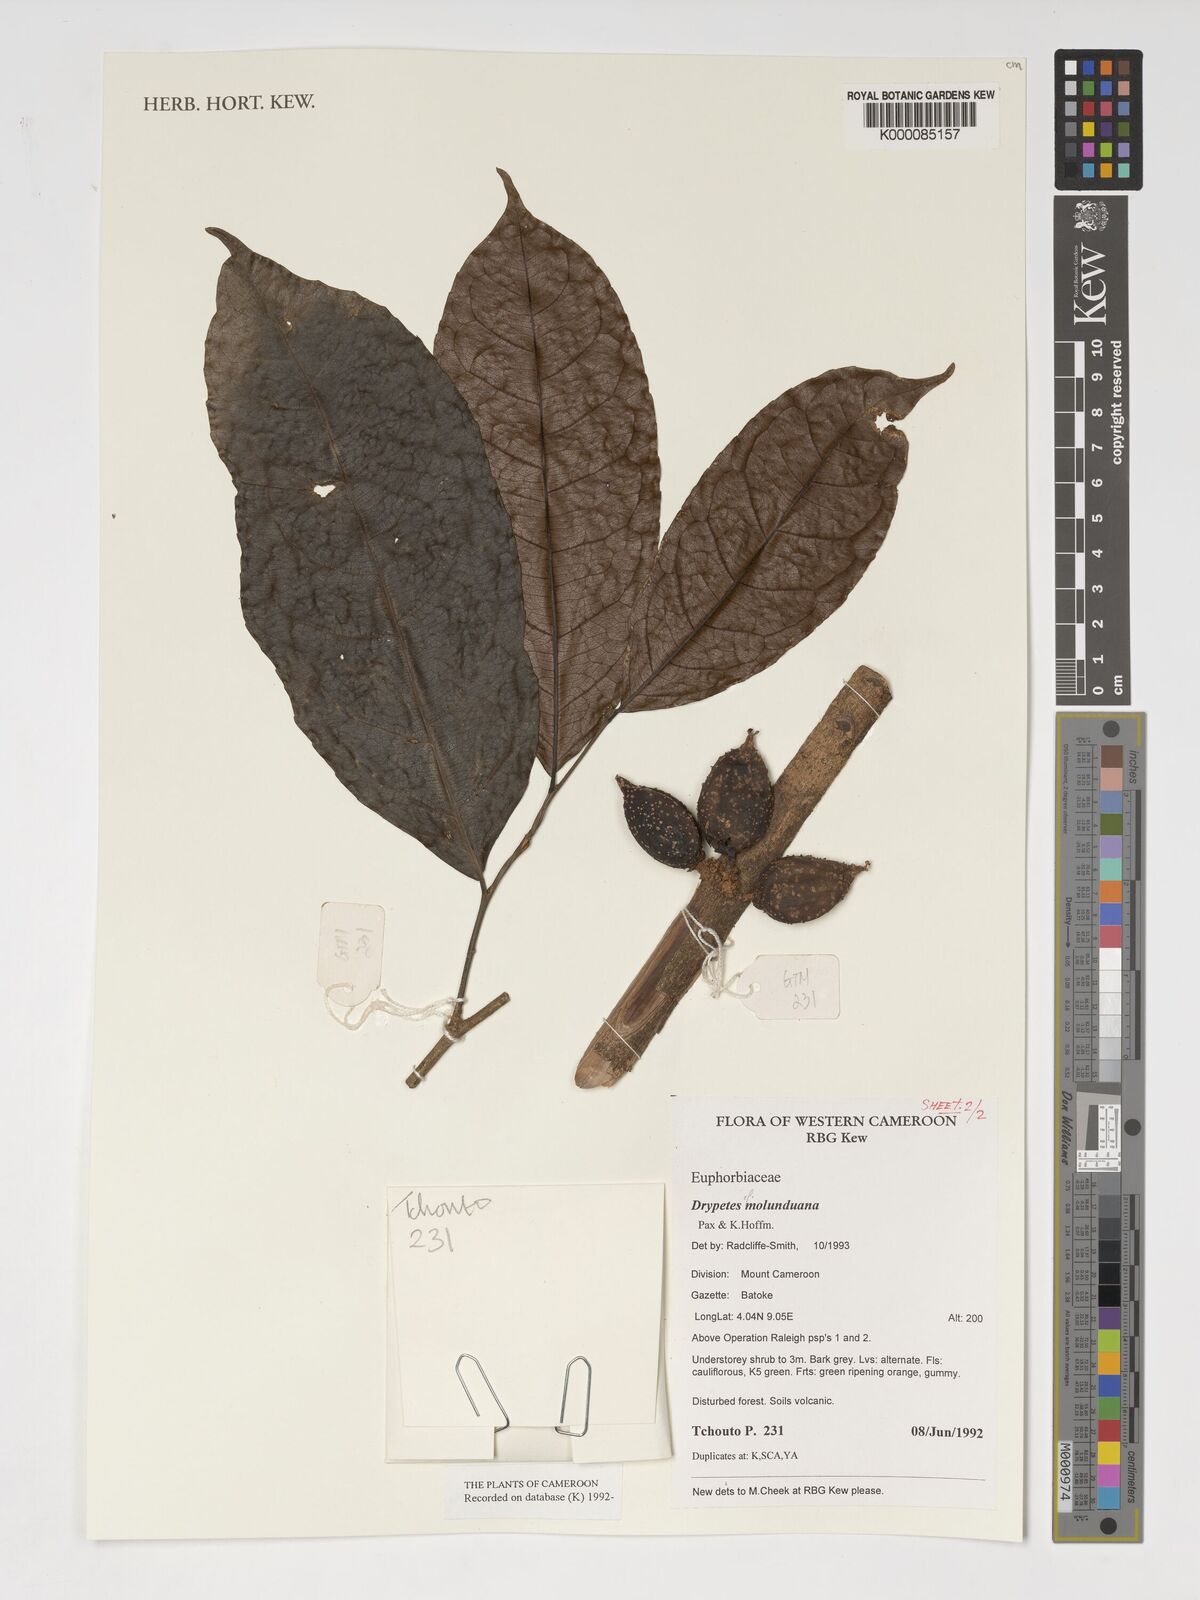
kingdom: Plantae
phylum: Tracheophyta
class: Magnoliopsida
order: Malpighiales
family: Putranjivaceae
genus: Drypetes
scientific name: Drypetes molunduana
